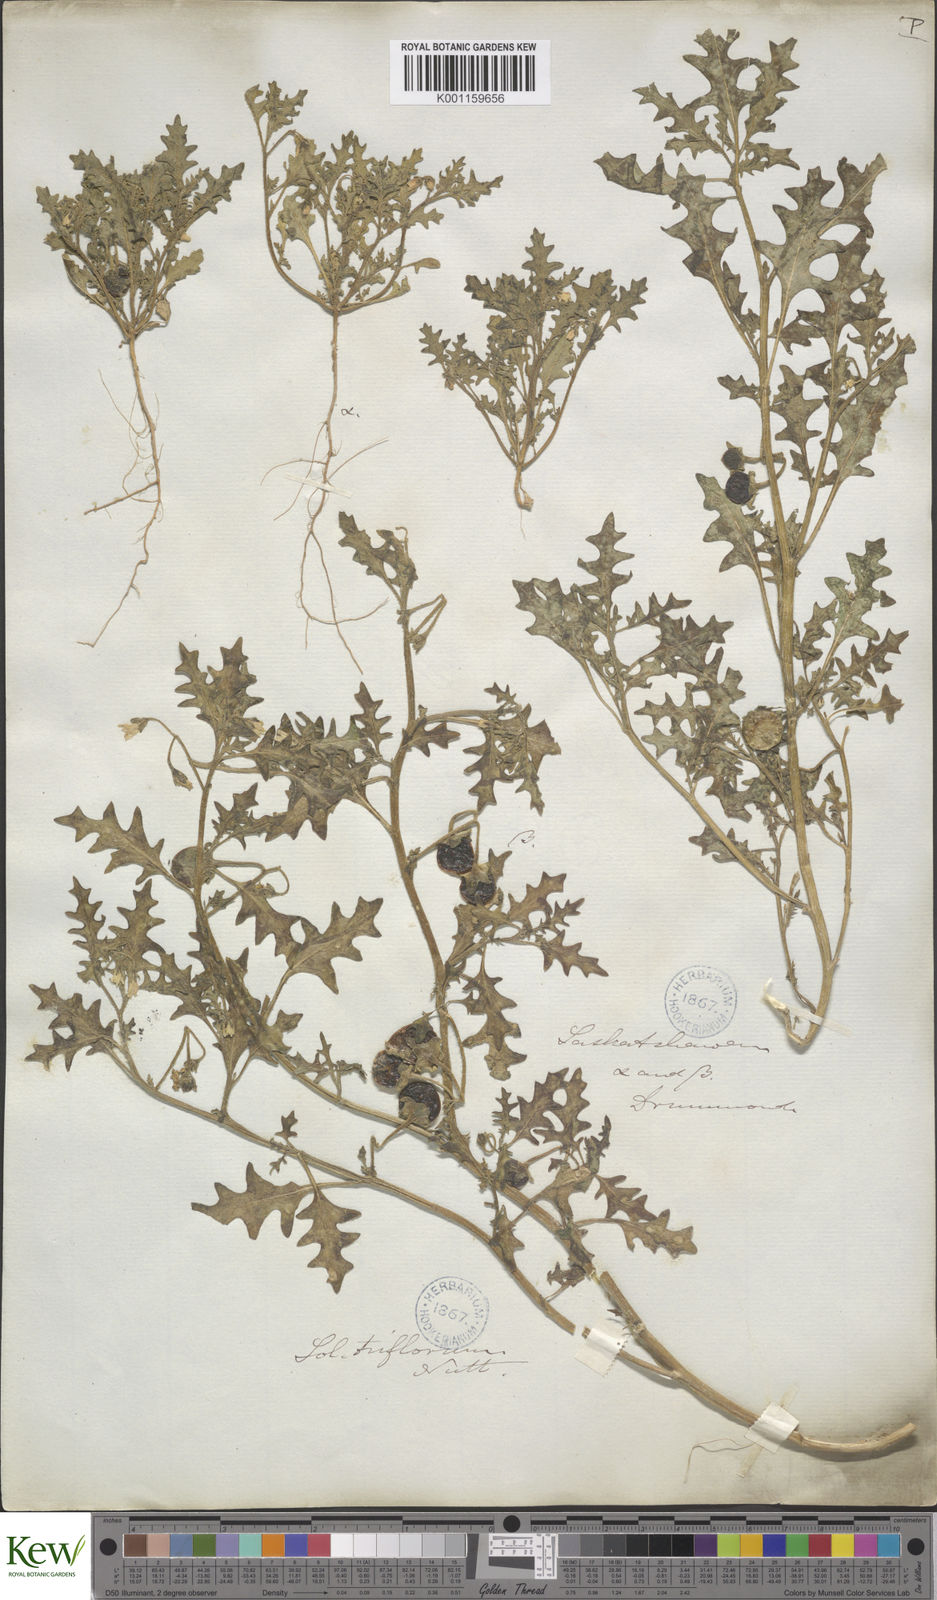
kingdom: Plantae
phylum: Tracheophyta
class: Magnoliopsida
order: Solanales
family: Solanaceae
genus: Solanum
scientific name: Solanum triflorum
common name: Small nightshade
